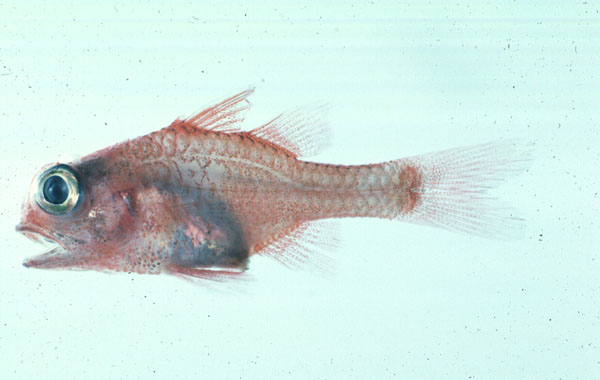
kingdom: Animalia
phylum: Chordata
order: Perciformes
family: Apogonidae
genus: Apogon
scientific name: Apogon coccineus
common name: Ruby cardinalfish
